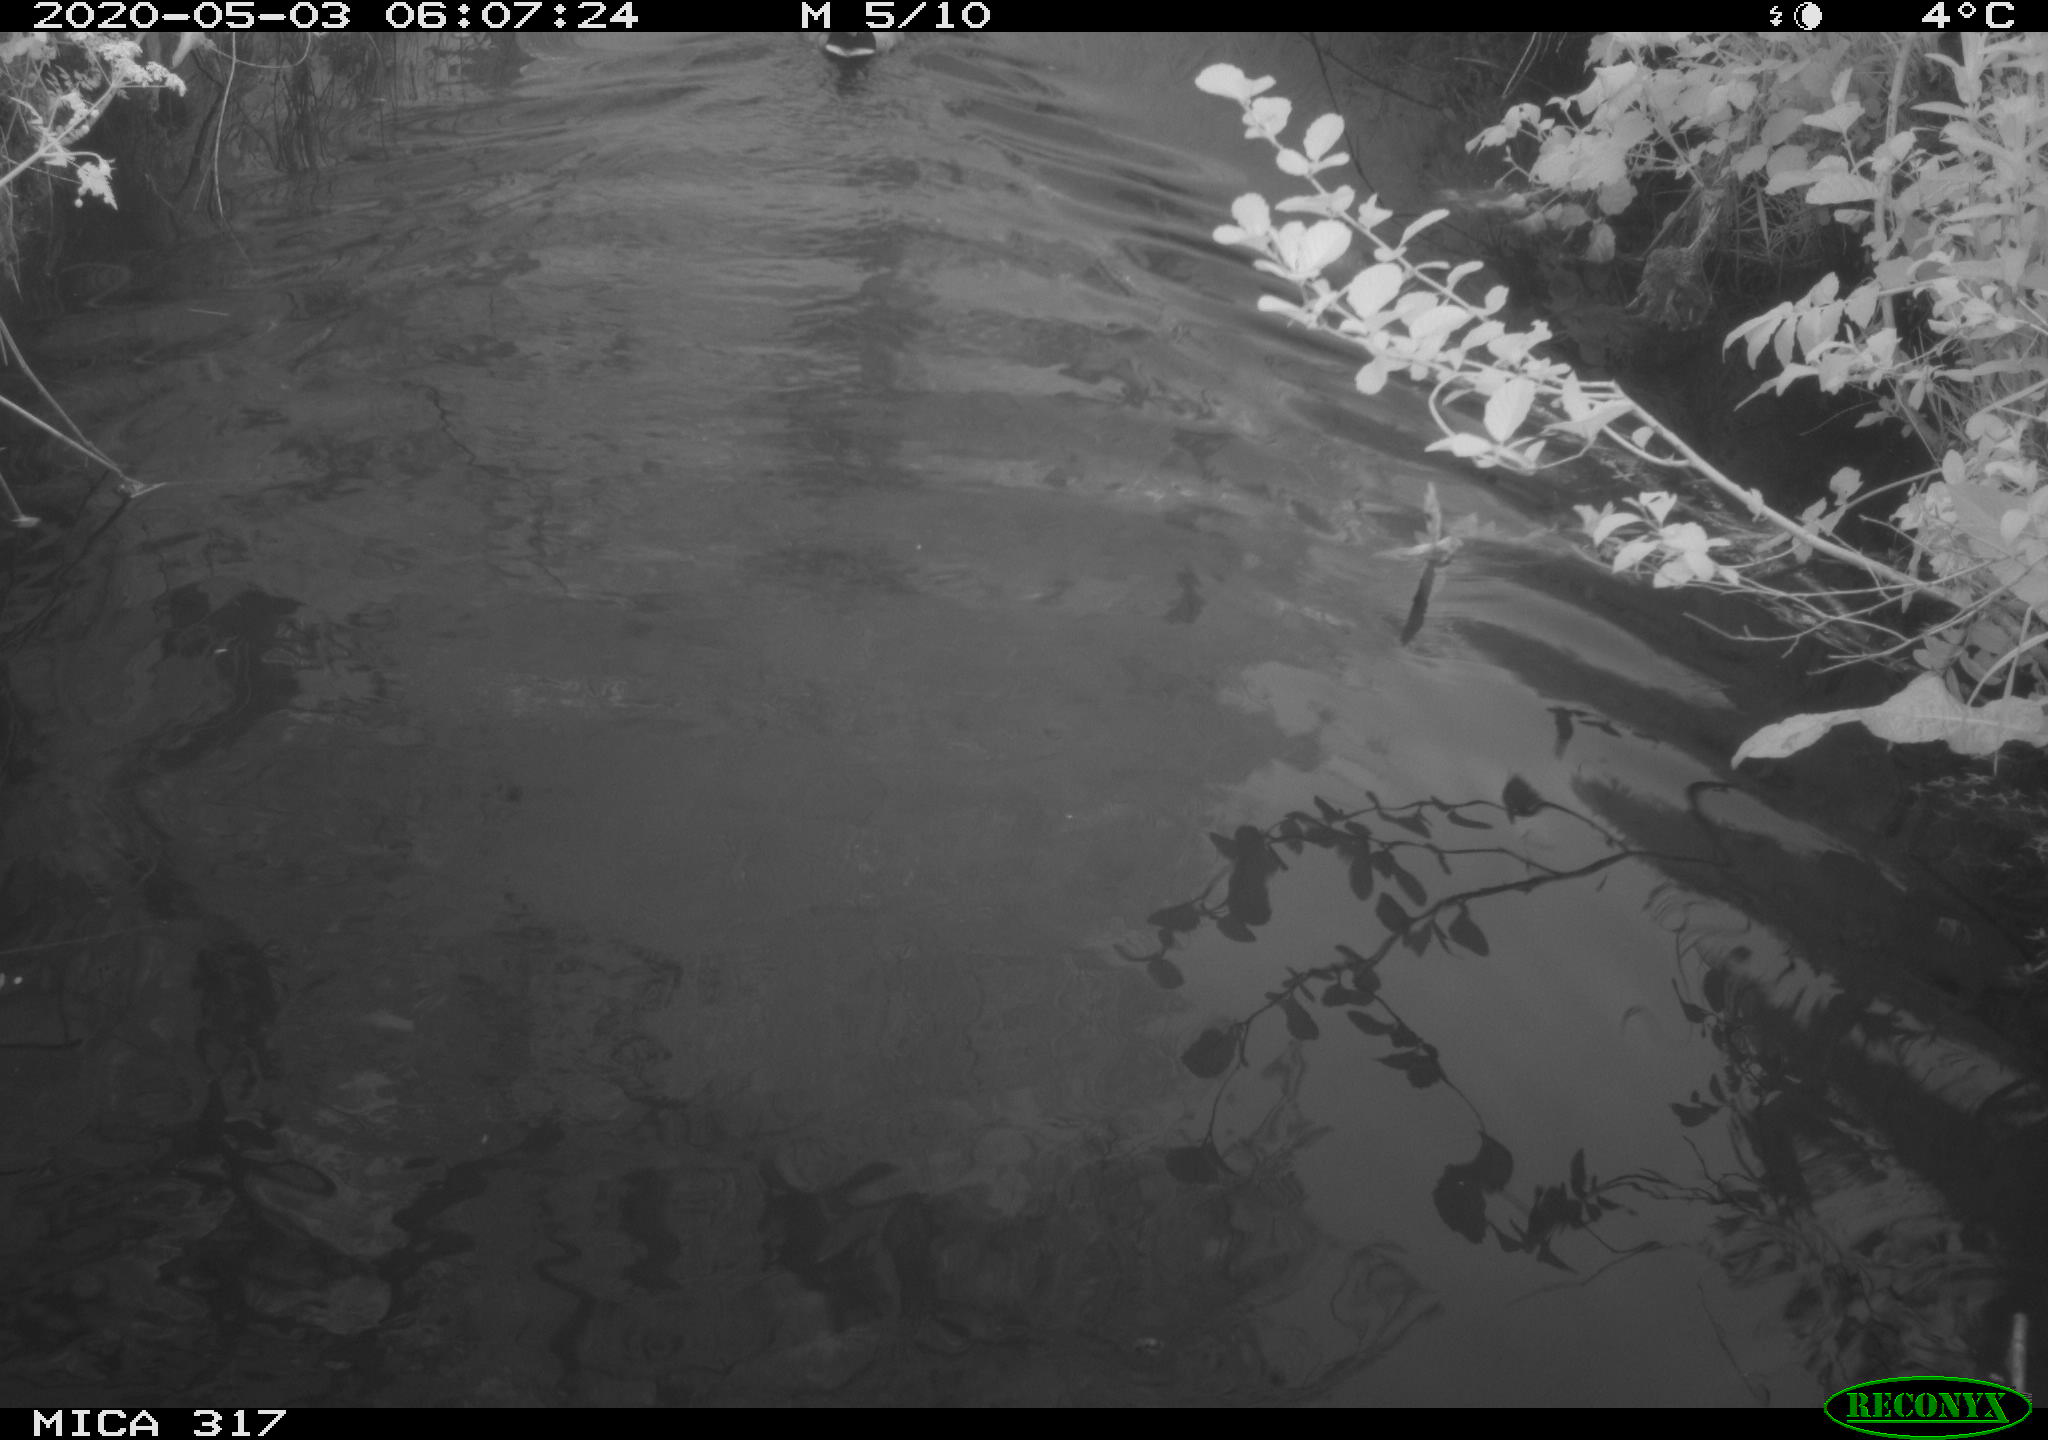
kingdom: Animalia
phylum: Chordata
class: Aves
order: Anseriformes
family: Anatidae
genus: Anas
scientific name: Anas platyrhynchos
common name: Mallard
